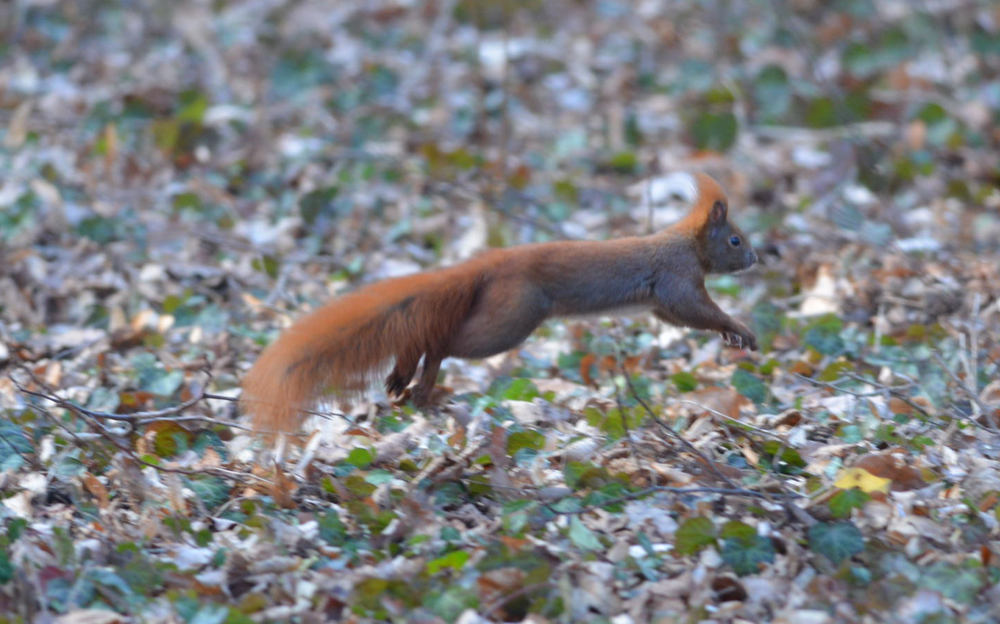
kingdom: Animalia
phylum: Chordata
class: Mammalia
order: Rodentia
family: Sciuridae
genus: Sciurus
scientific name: Sciurus vulgaris
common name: Eurasian red squirrel
